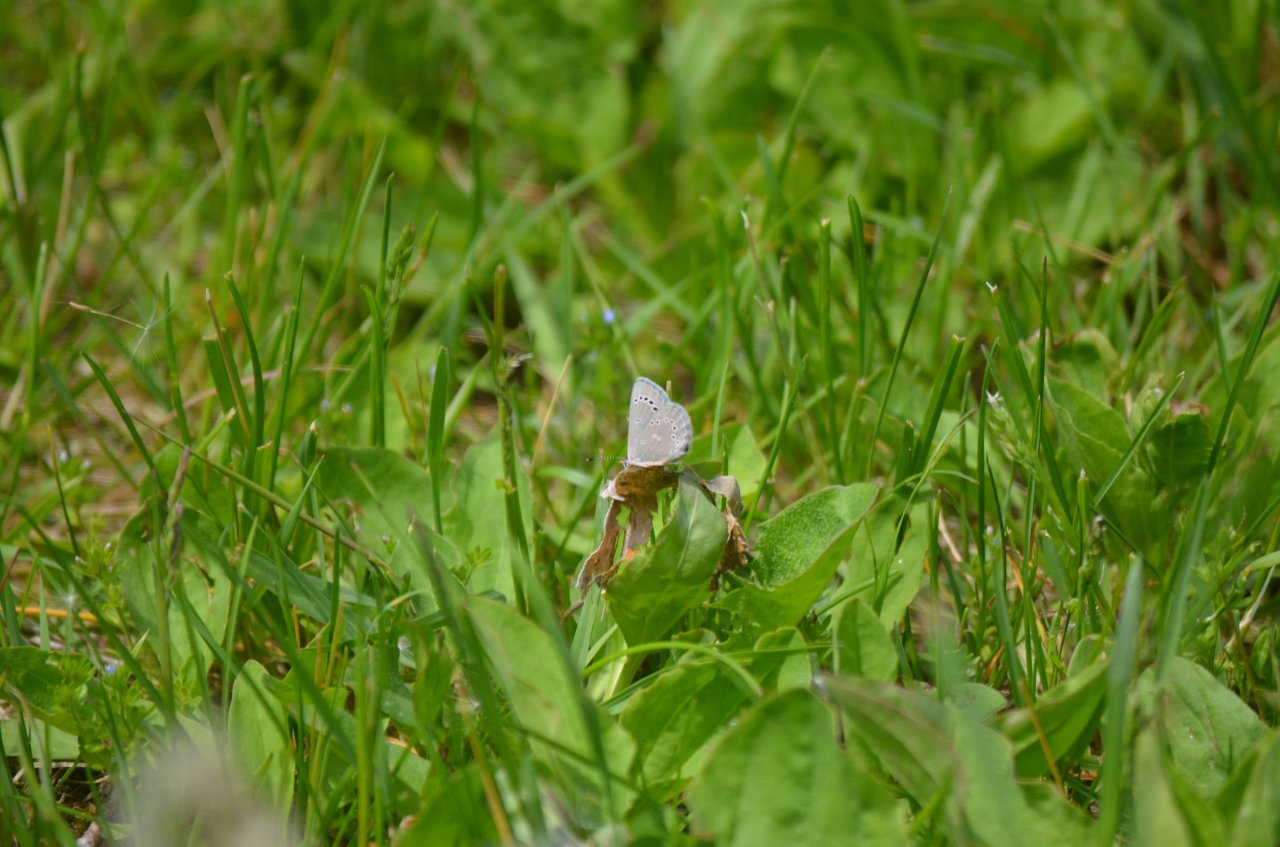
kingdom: Animalia
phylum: Arthropoda
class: Insecta
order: Lepidoptera
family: Lycaenidae
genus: Glaucopsyche
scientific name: Glaucopsyche lygdamus
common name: Silvery Blue
